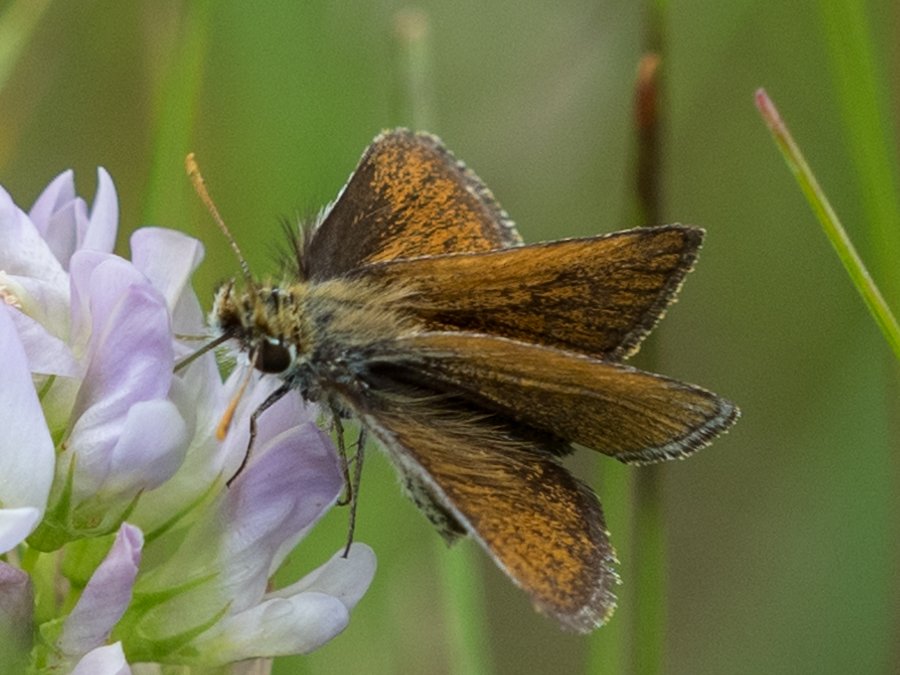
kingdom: Animalia
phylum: Arthropoda
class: Insecta
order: Lepidoptera
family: Hesperiidae
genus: Oarisma
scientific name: Oarisma garita
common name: Garita Skipperling
